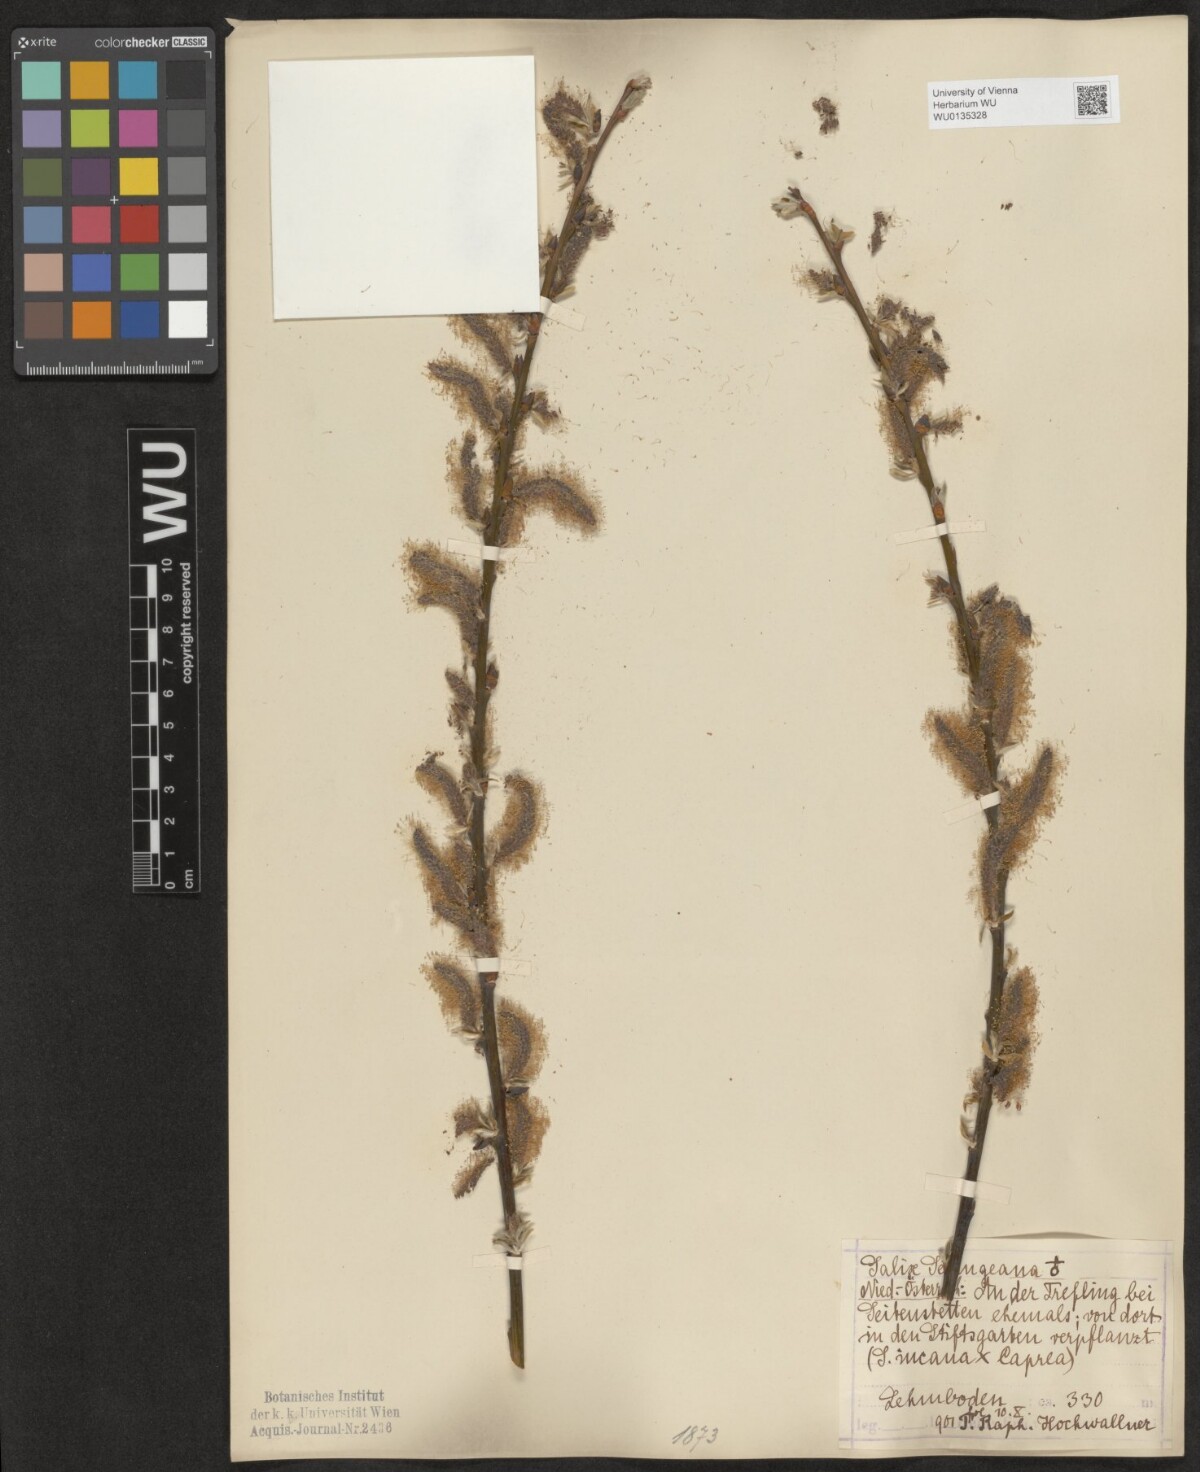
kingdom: Plantae
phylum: Tracheophyta
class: Magnoliopsida
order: Malpighiales
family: Salicaceae
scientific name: Salicaceae
